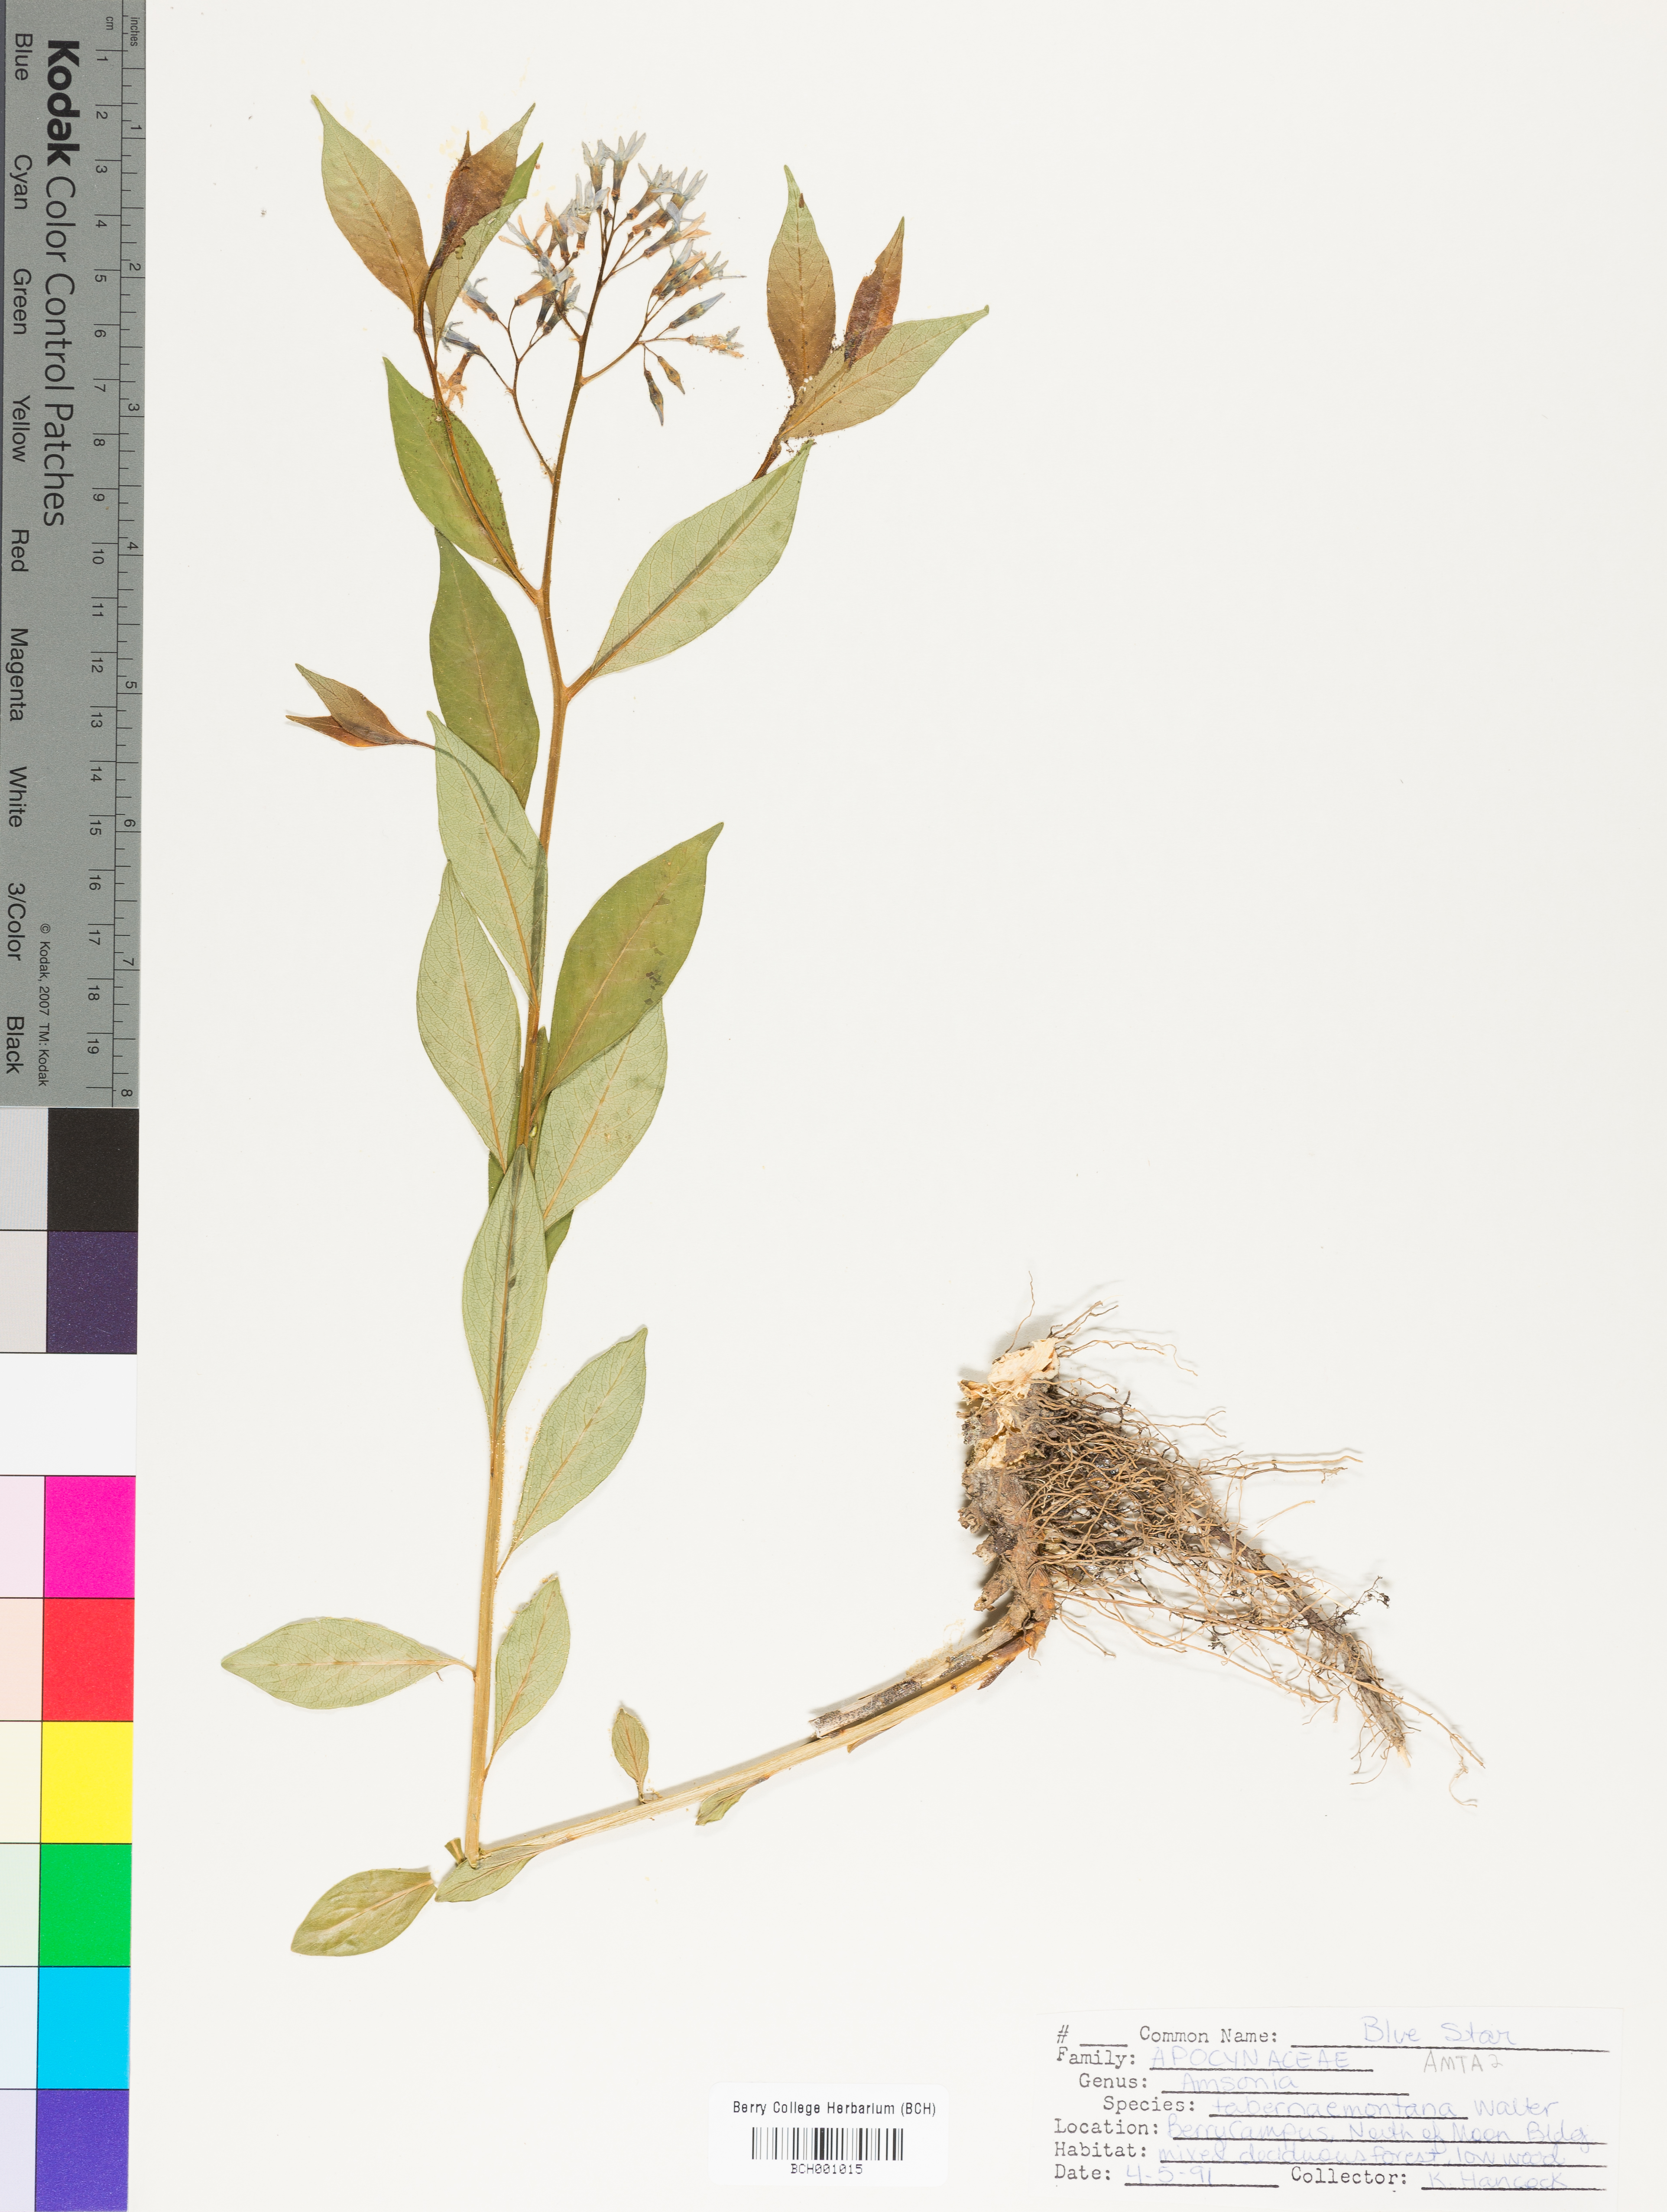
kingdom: Plantae
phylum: Tracheophyta
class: Magnoliopsida
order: Gentianales
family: Apocynaceae
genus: Amsonia
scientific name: Amsonia tabernaemontana
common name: Texas-star
